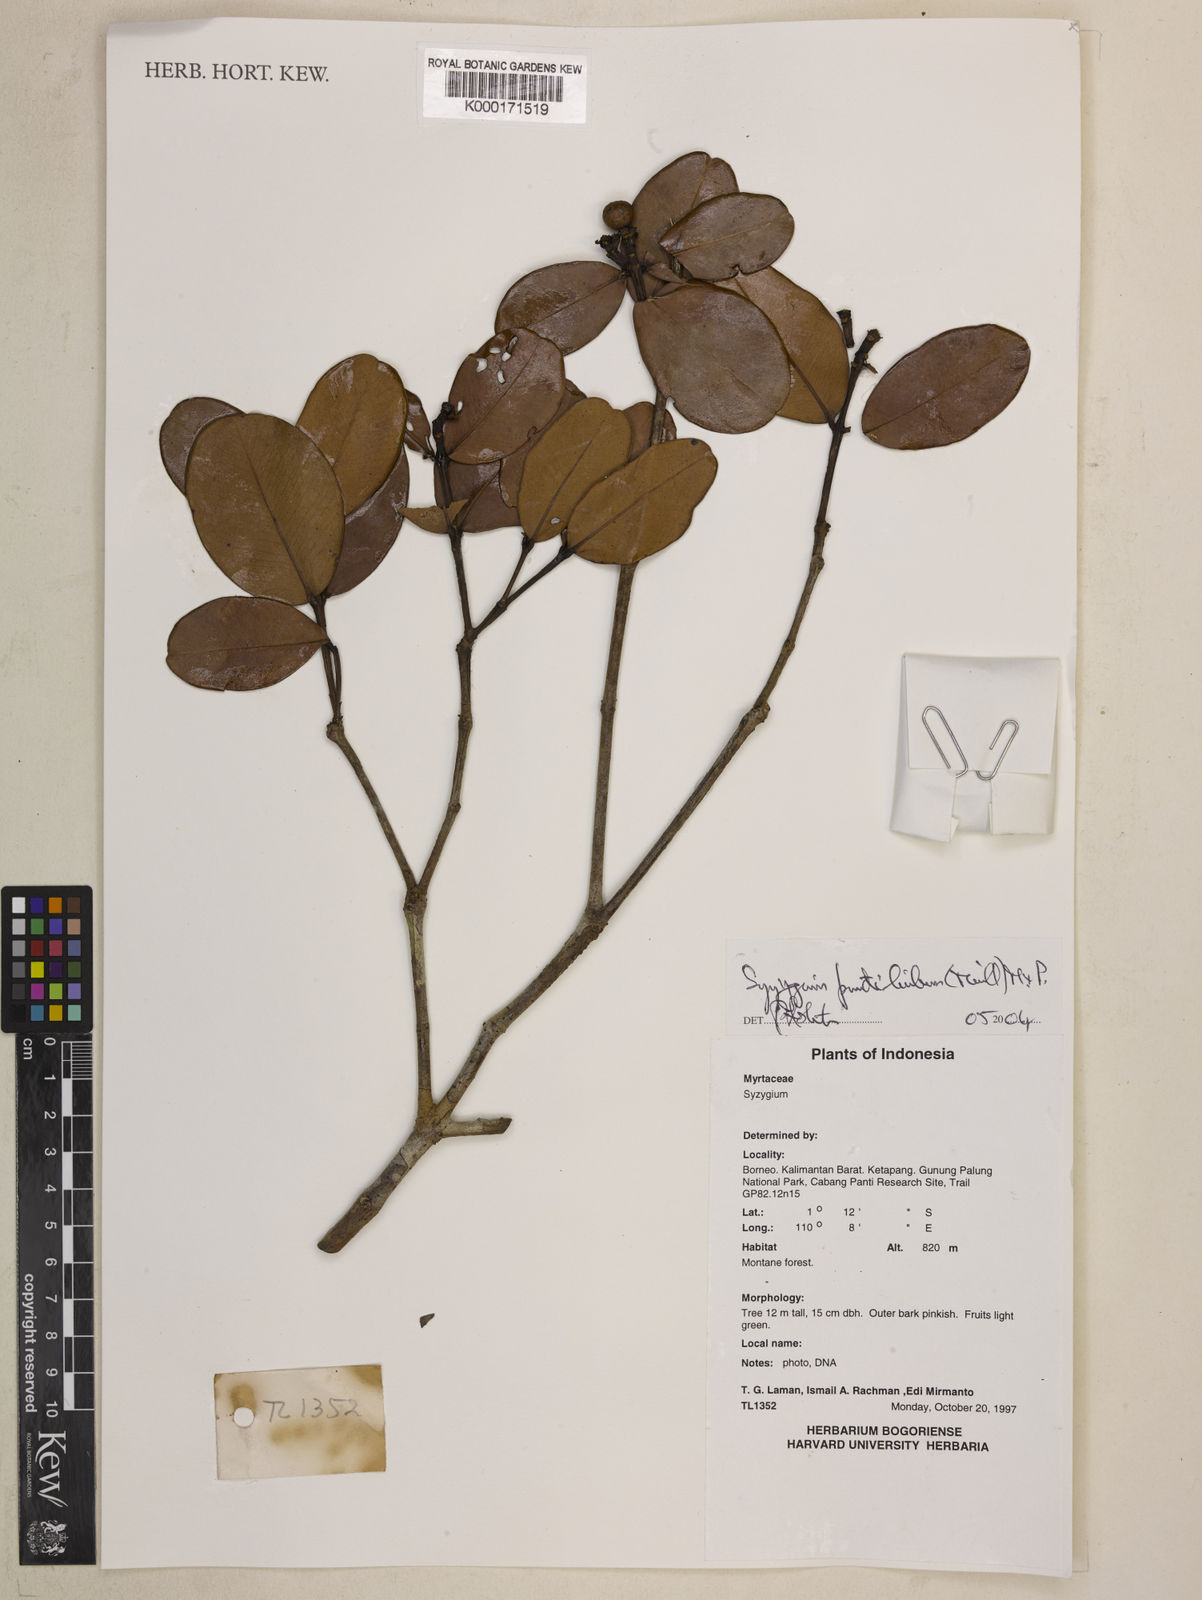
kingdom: Plantae
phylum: Tracheophyta
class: Magnoliopsida
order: Myrtales
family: Myrtaceae
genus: Syzygium
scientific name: Syzygium punctilimbum
